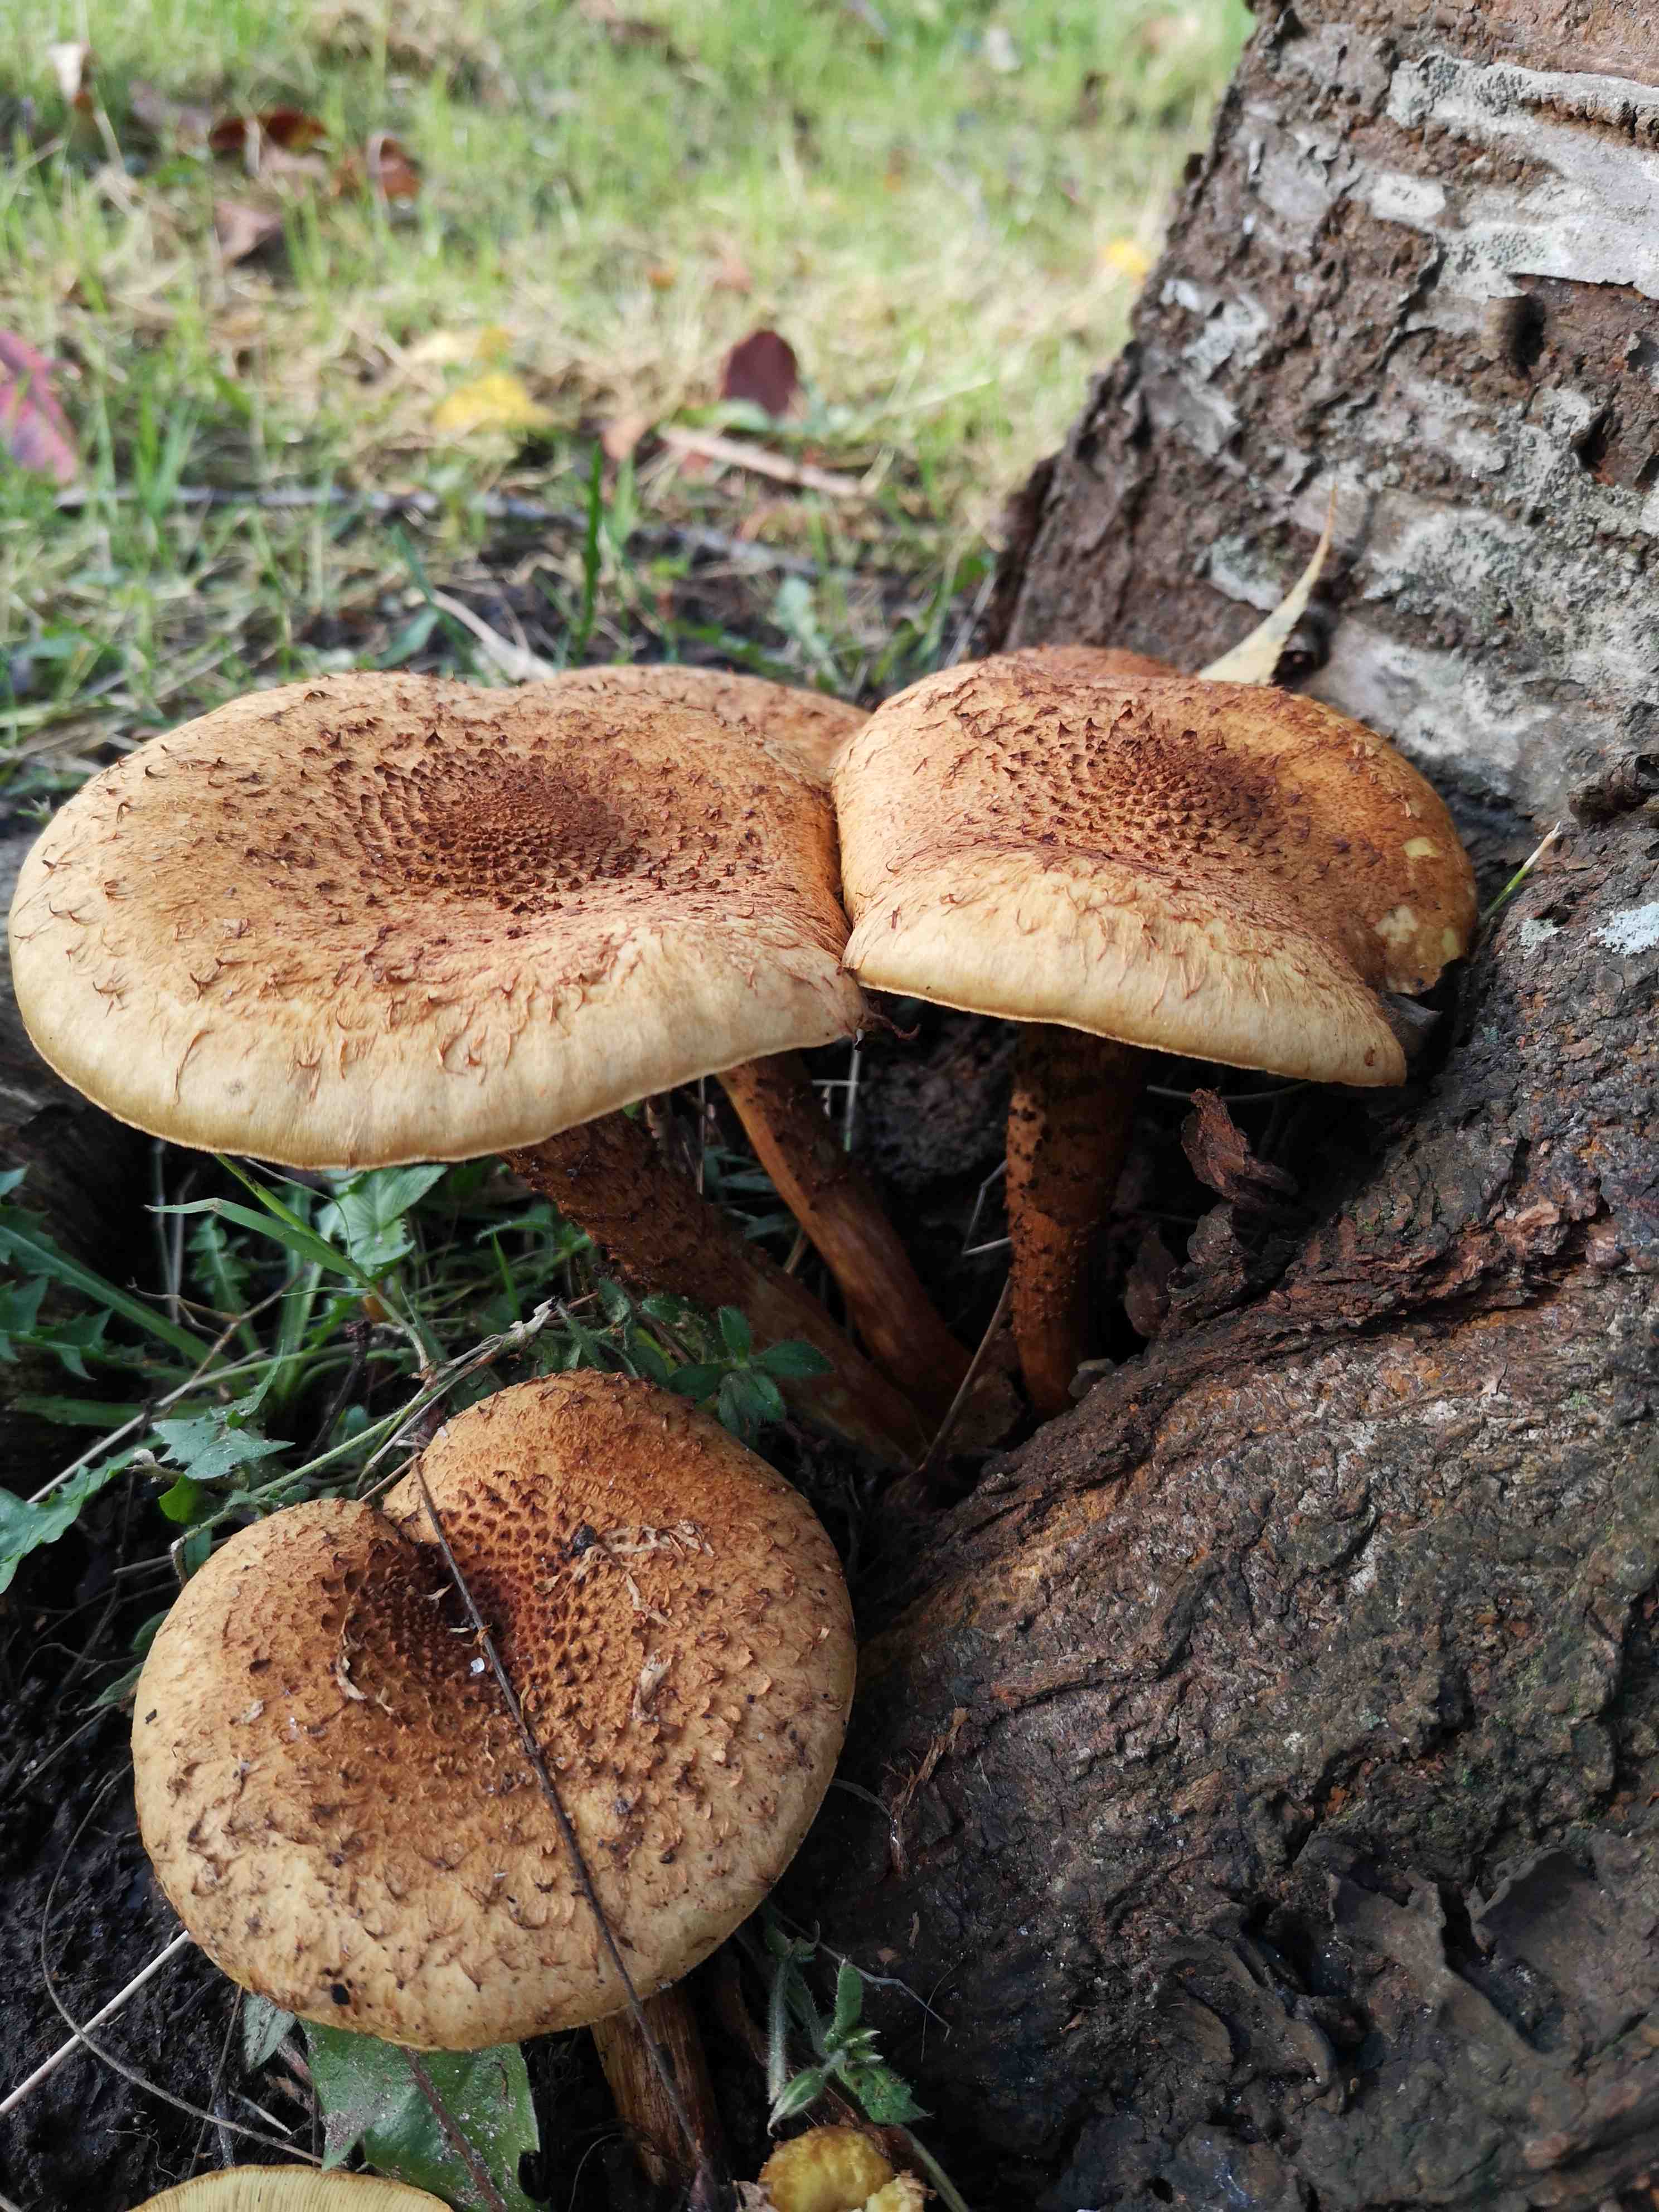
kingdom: Fungi
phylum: Basidiomycota
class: Agaricomycetes
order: Agaricales
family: Strophariaceae
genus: Pholiota
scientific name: Pholiota squarrosa
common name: krumskællet skælhat
